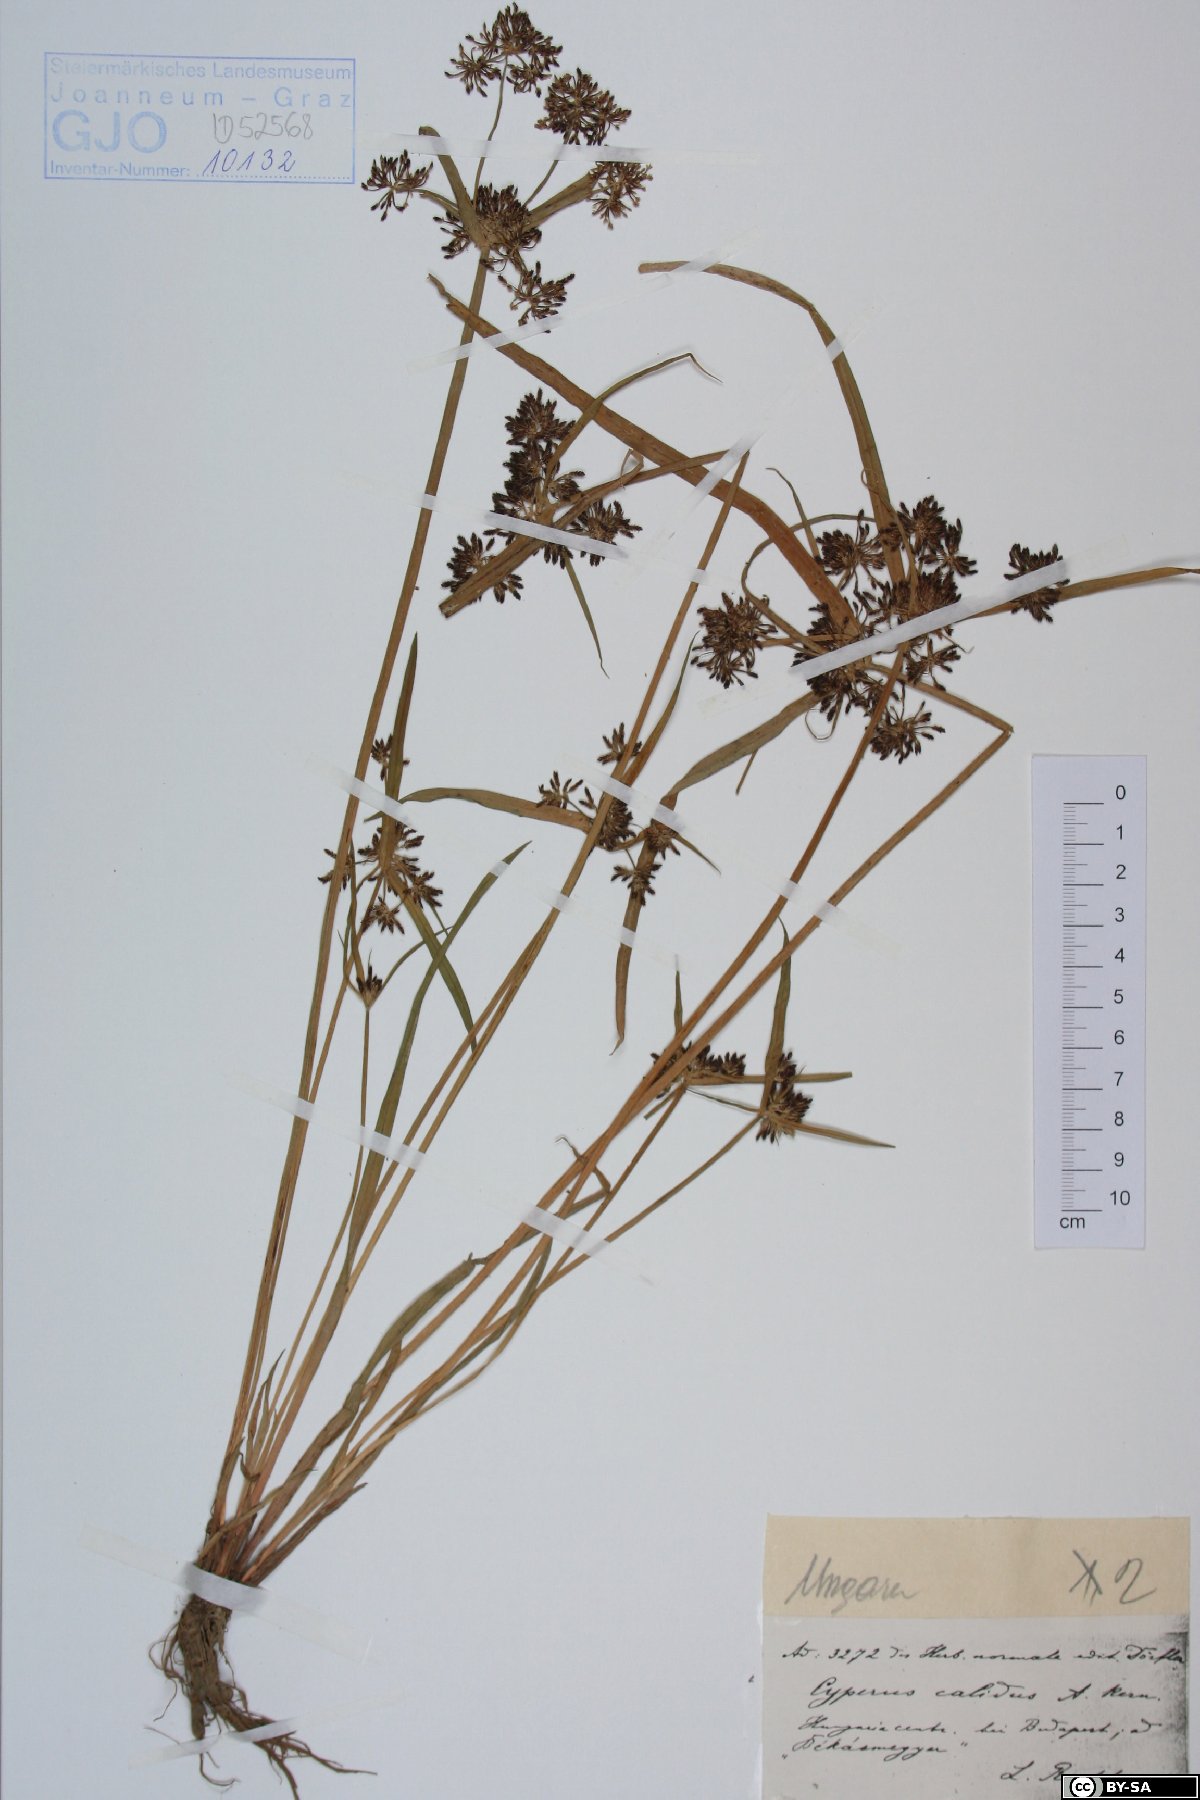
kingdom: Plantae
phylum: Tracheophyta
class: Liliopsida
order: Poales
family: Cyperaceae
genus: Cyperus
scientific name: Cyperus fuscus
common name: Brown galingale
